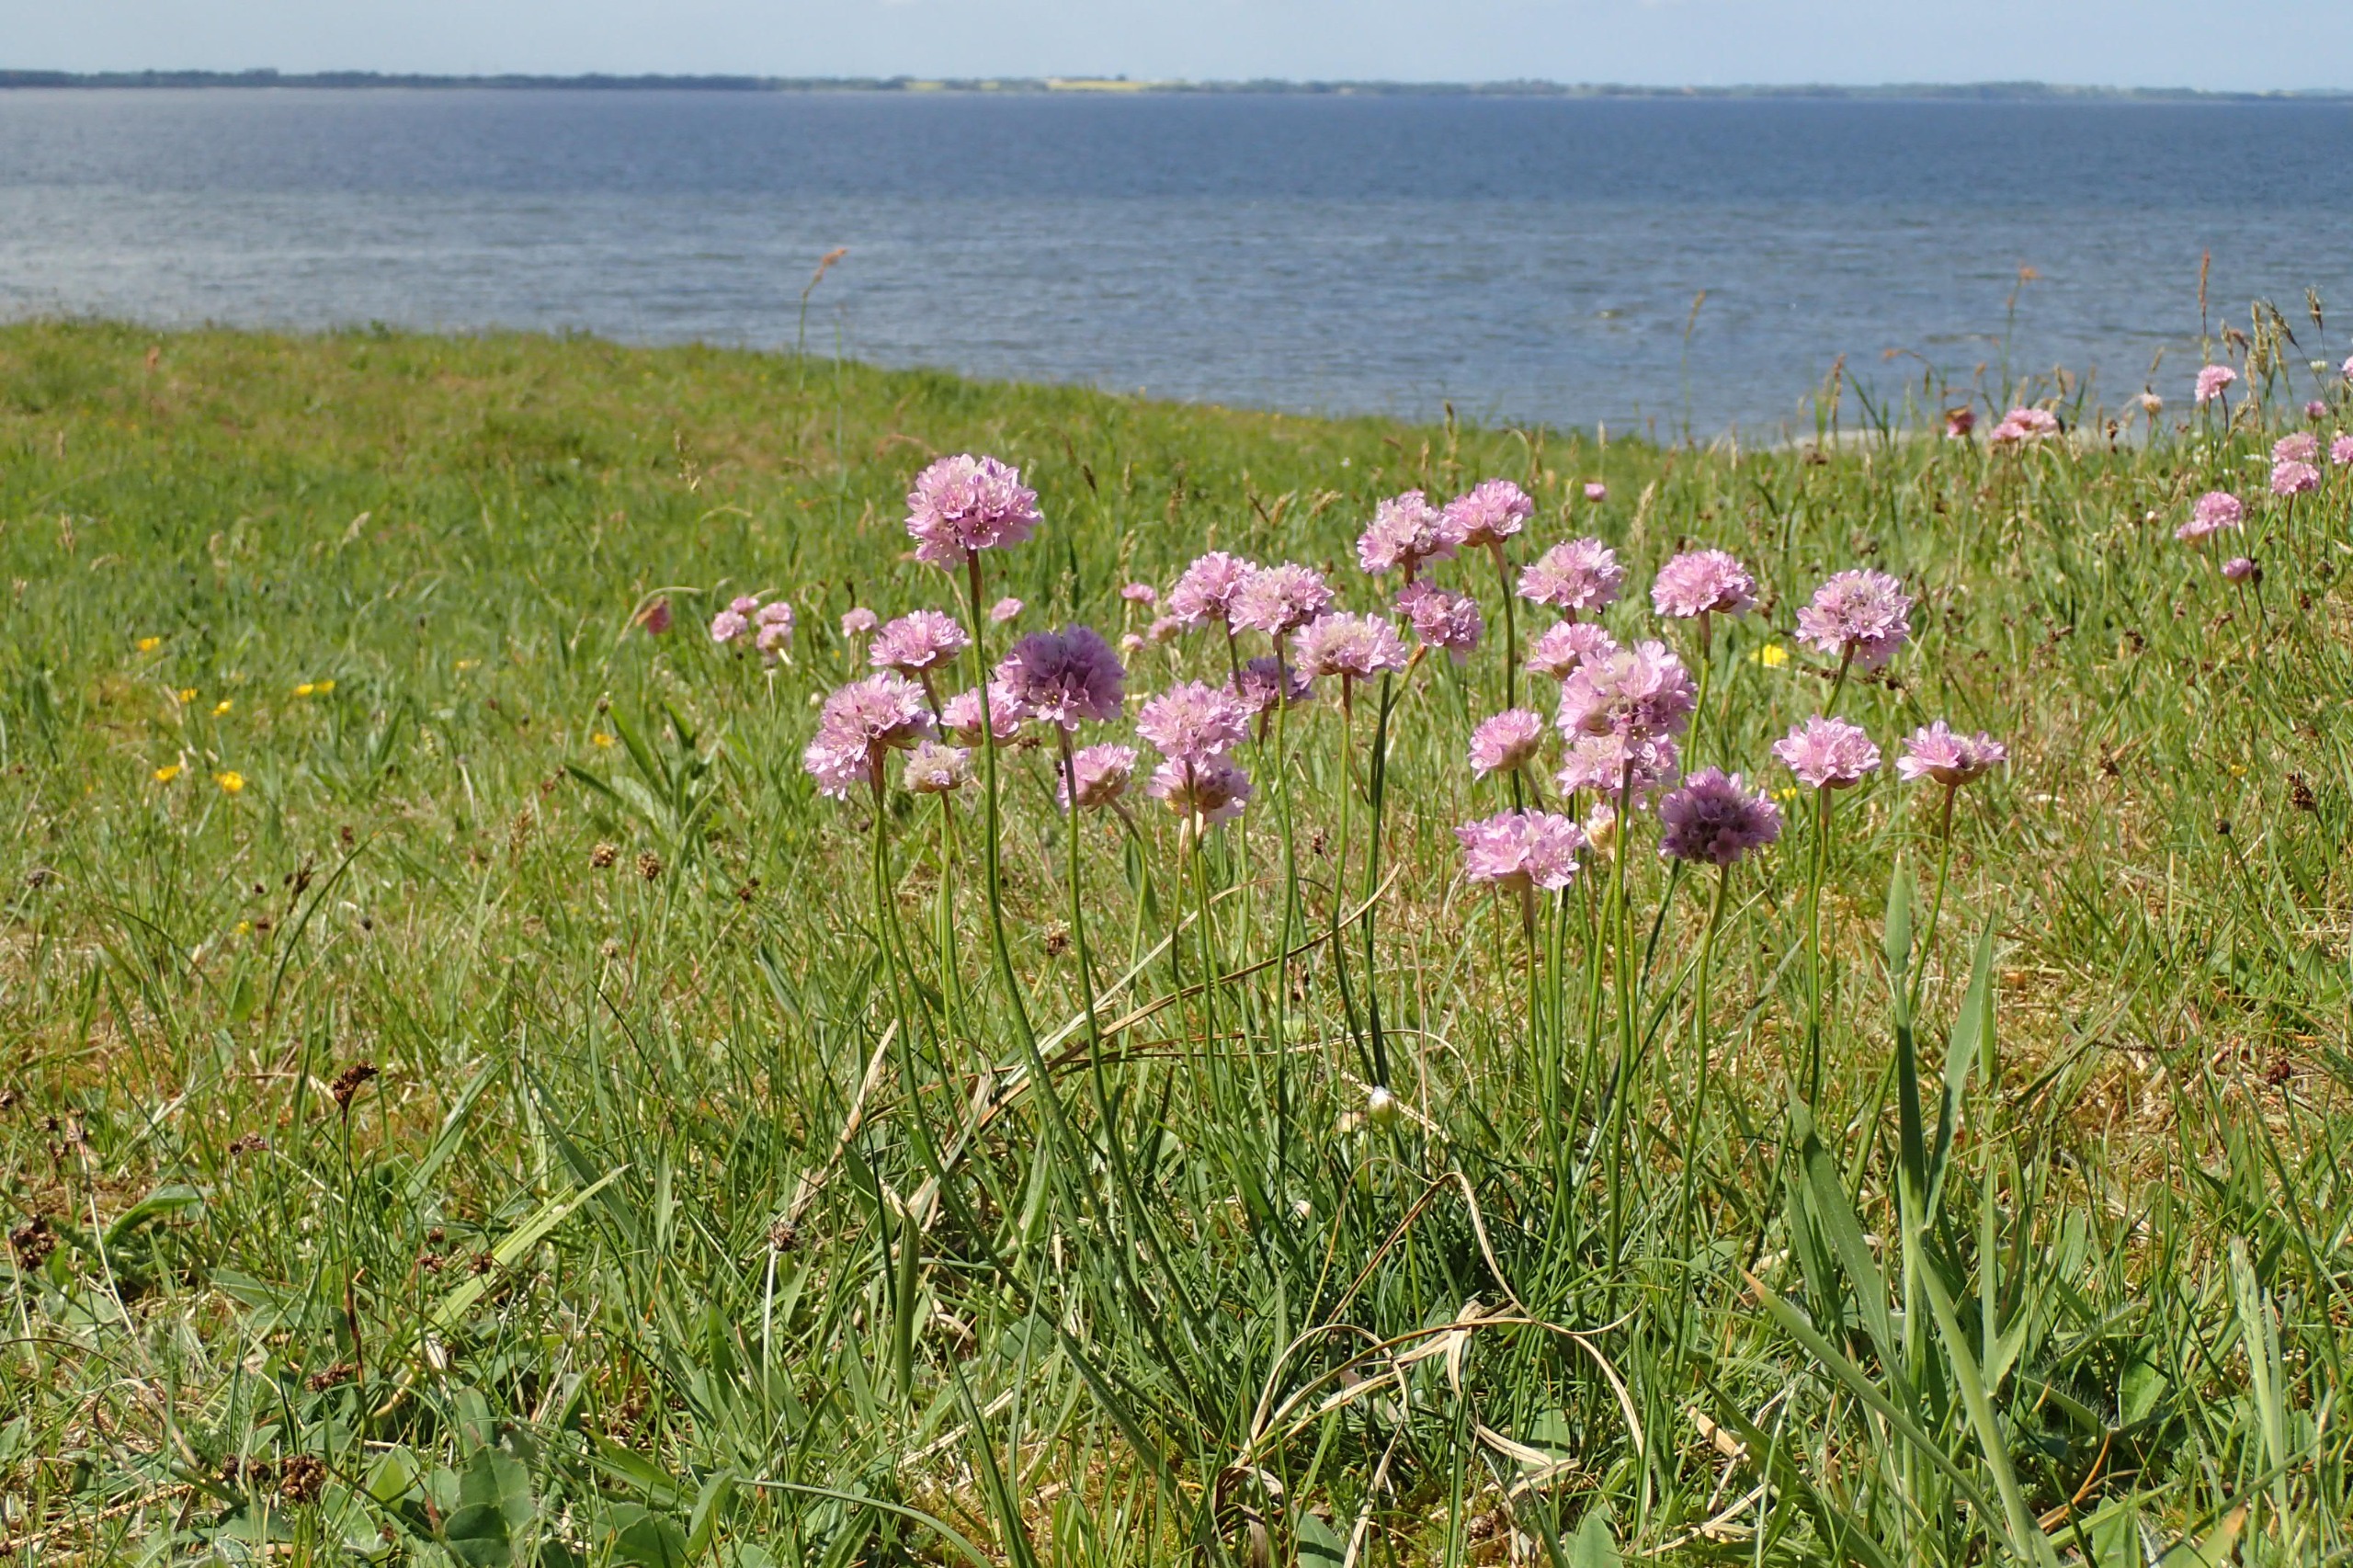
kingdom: Plantae
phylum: Tracheophyta
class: Magnoliopsida
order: Caryophyllales
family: Plumbaginaceae
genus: Armeria
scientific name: Armeria maritima
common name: Vej-engelskgræs
